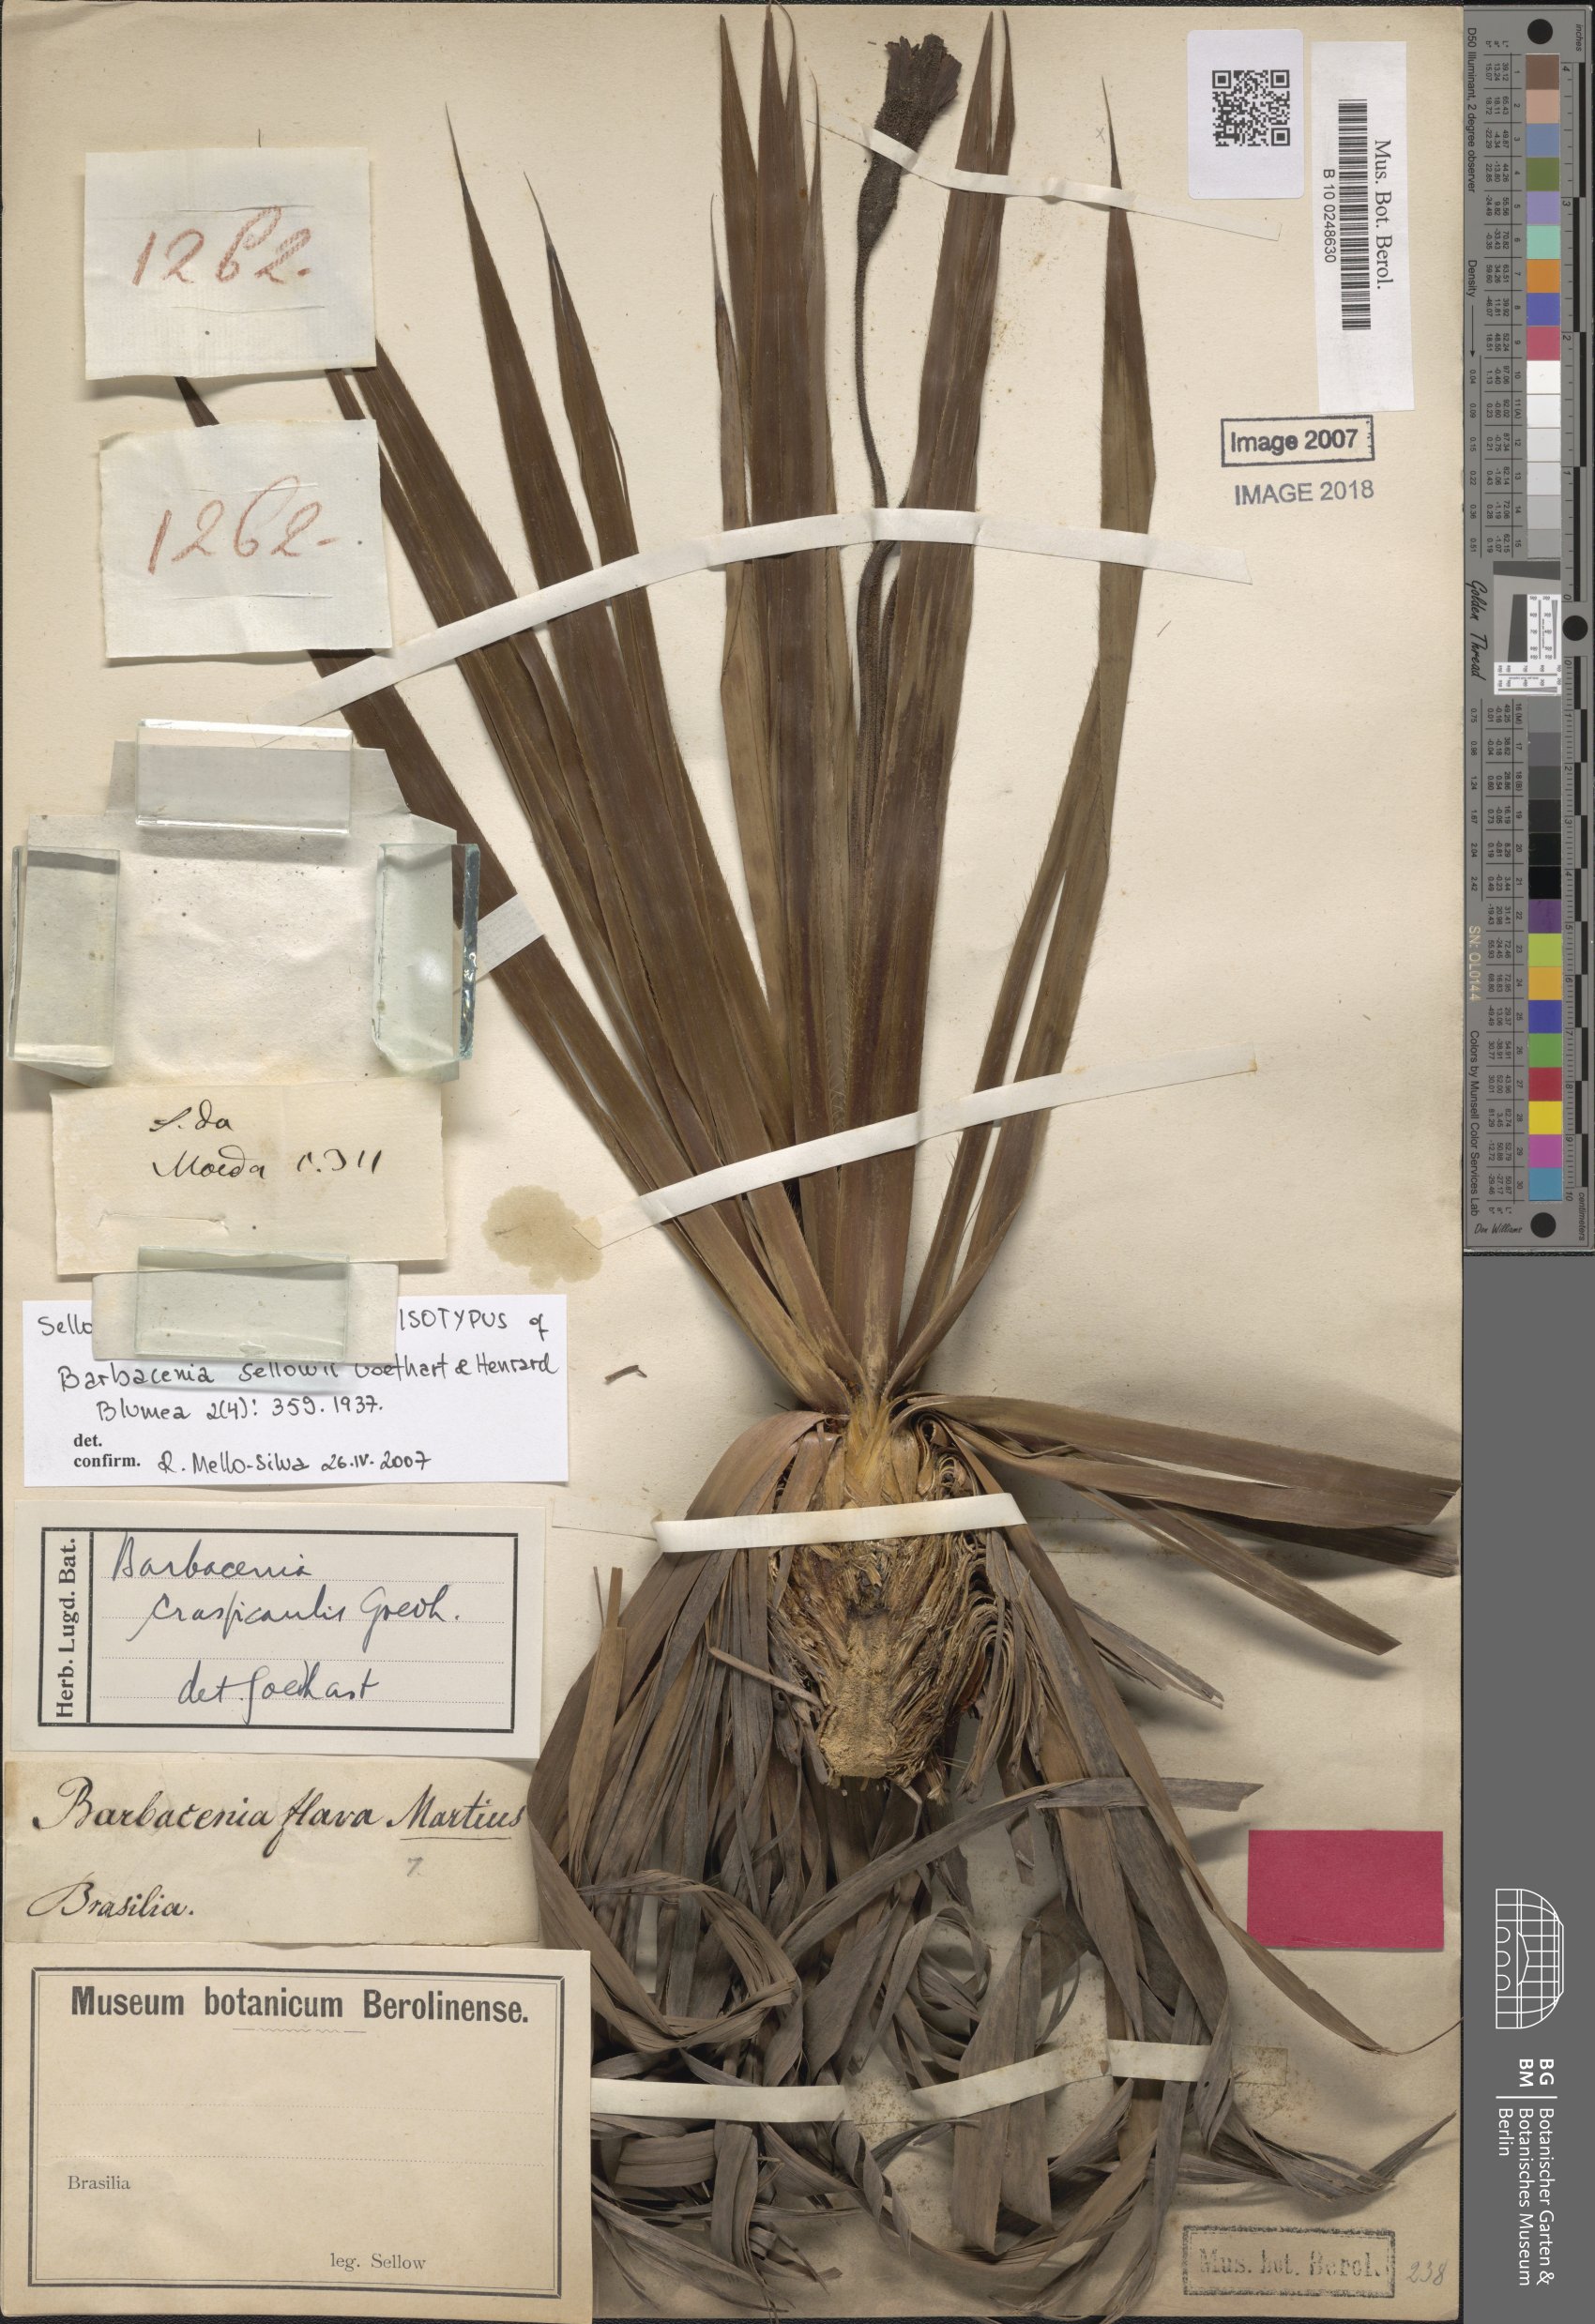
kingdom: Plantae
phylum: Tracheophyta
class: Liliopsida
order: Pandanales
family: Velloziaceae
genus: Barbacenia
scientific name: Barbacenia flava
